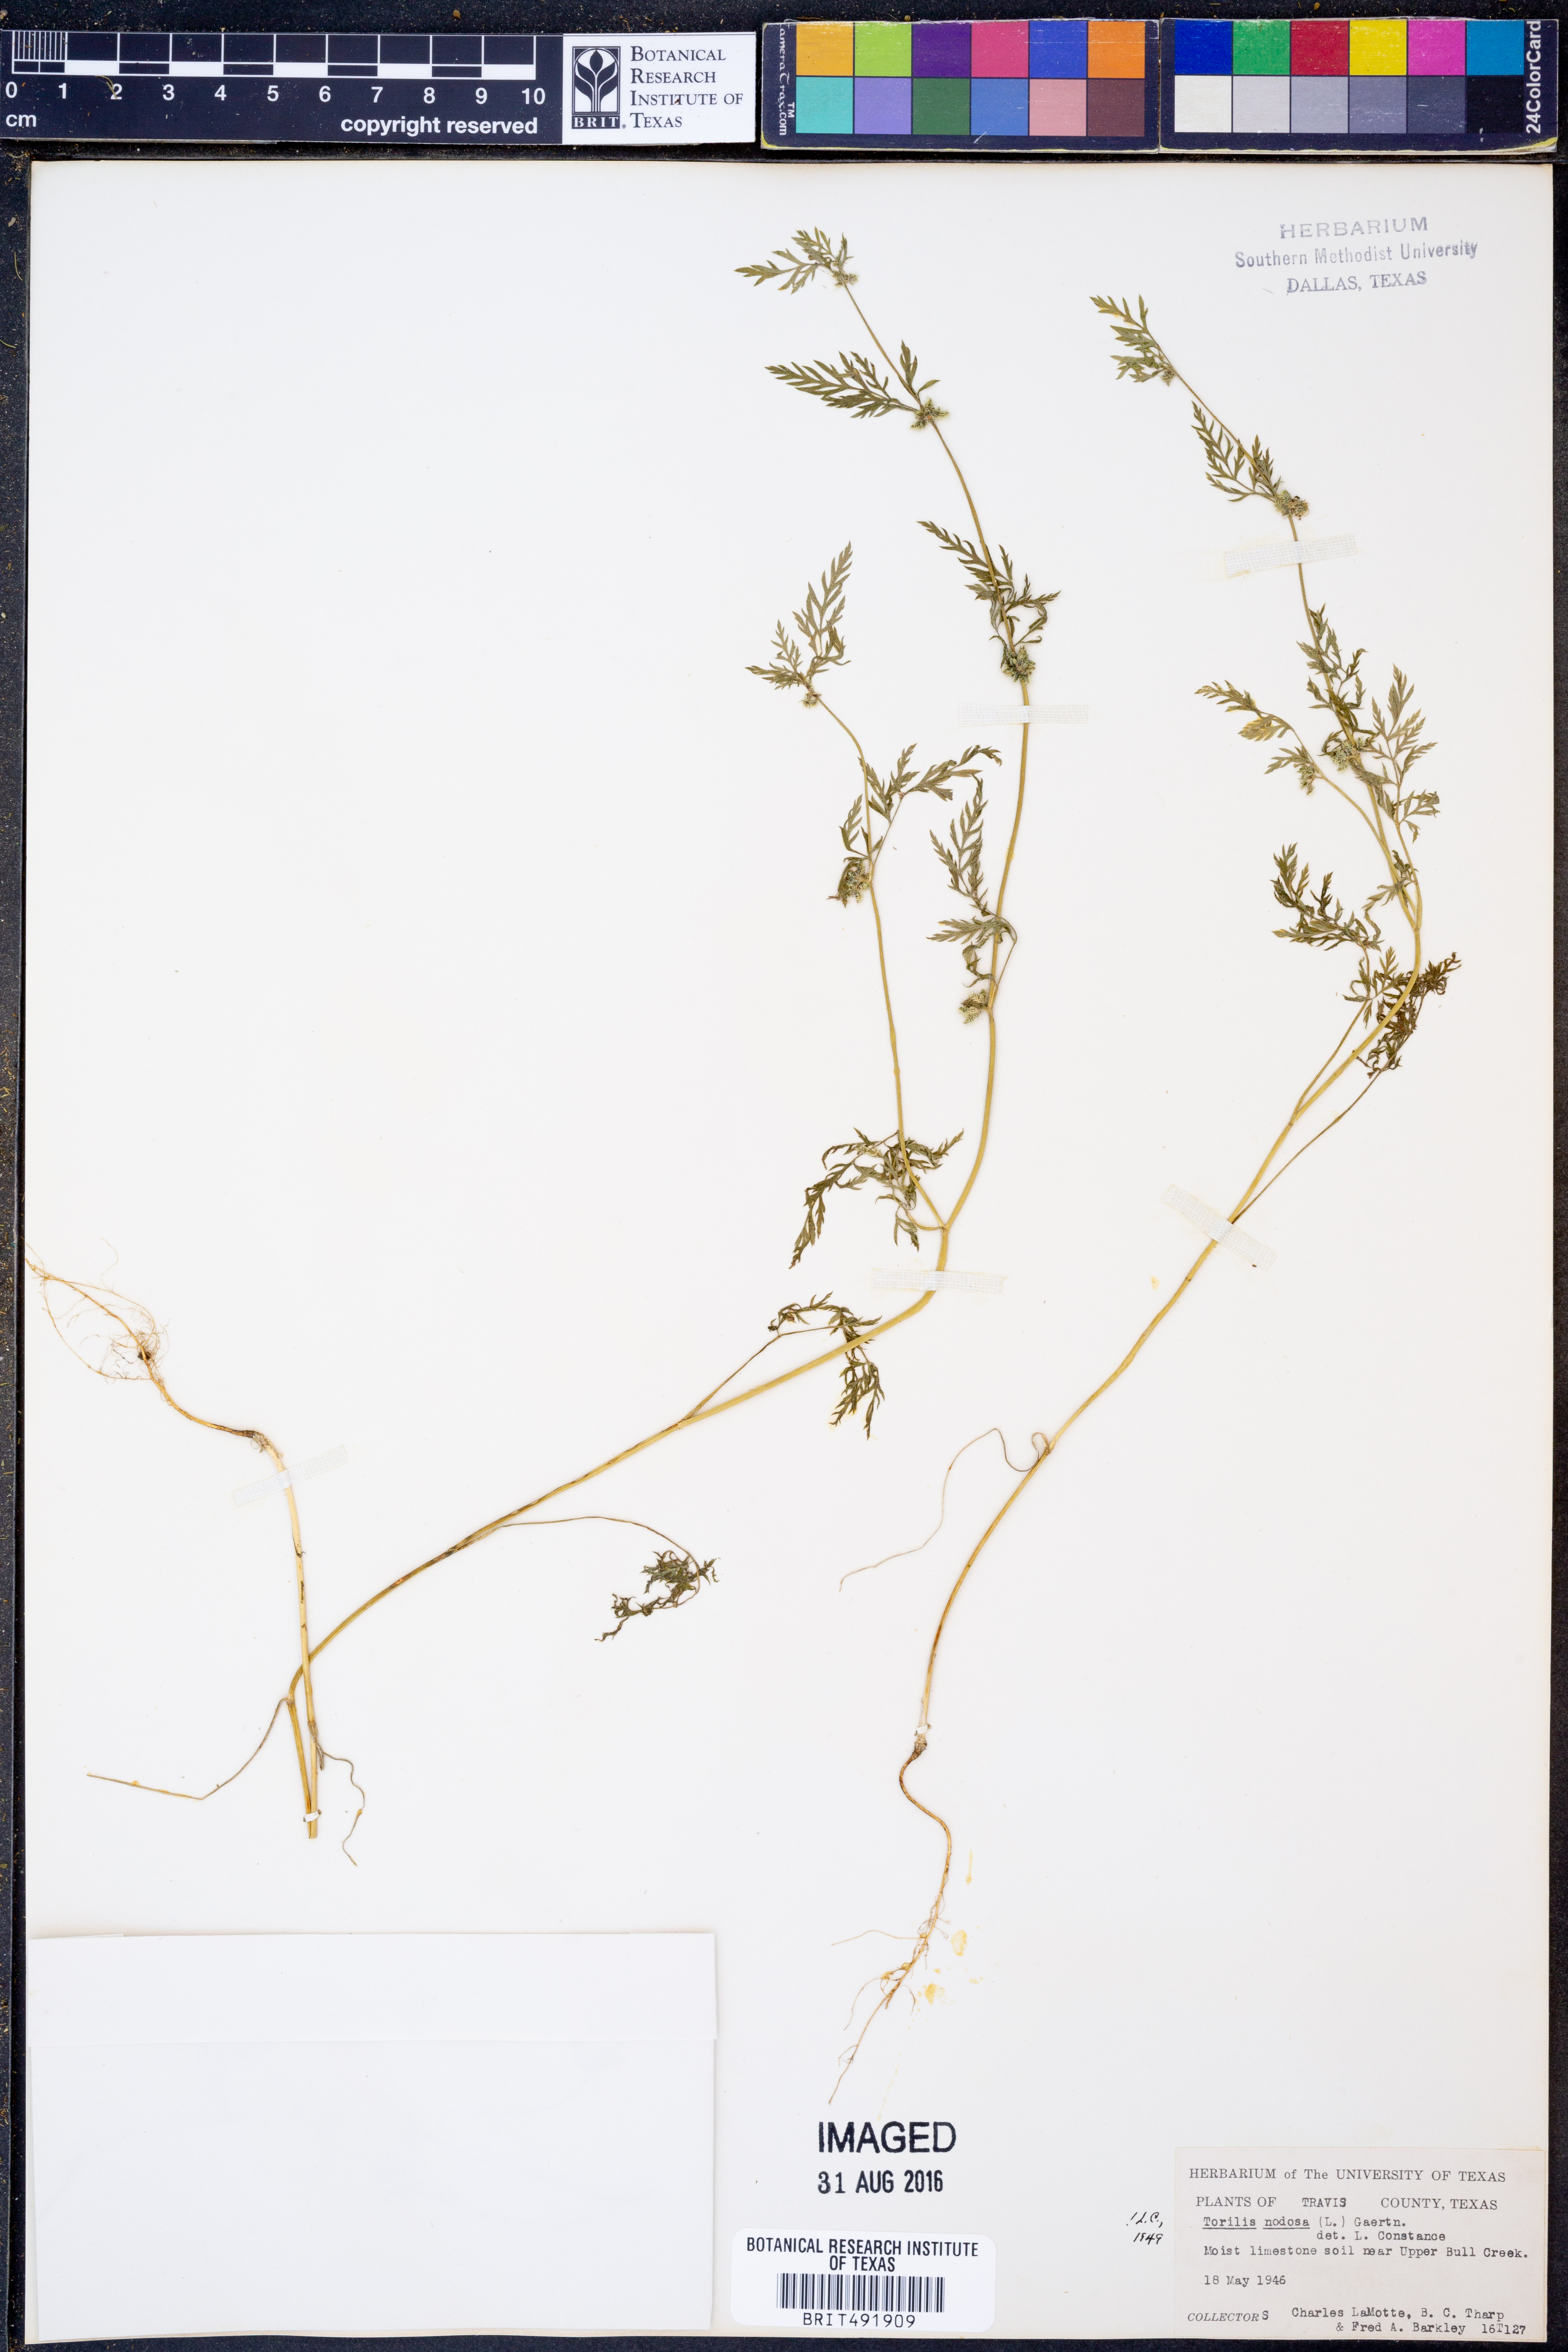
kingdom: Plantae
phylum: Tracheophyta
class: Magnoliopsida
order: Apiales
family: Apiaceae
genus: Torilis
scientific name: Torilis nodosa
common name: Knotted hedge-parsley
